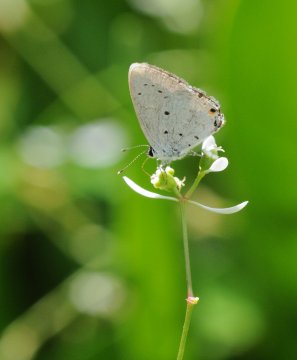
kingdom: Animalia
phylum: Arthropoda
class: Insecta
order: Lepidoptera
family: Lycaenidae
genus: Eicochrysops
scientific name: Eicochrysops hippocrates
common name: White-tipped Blue
